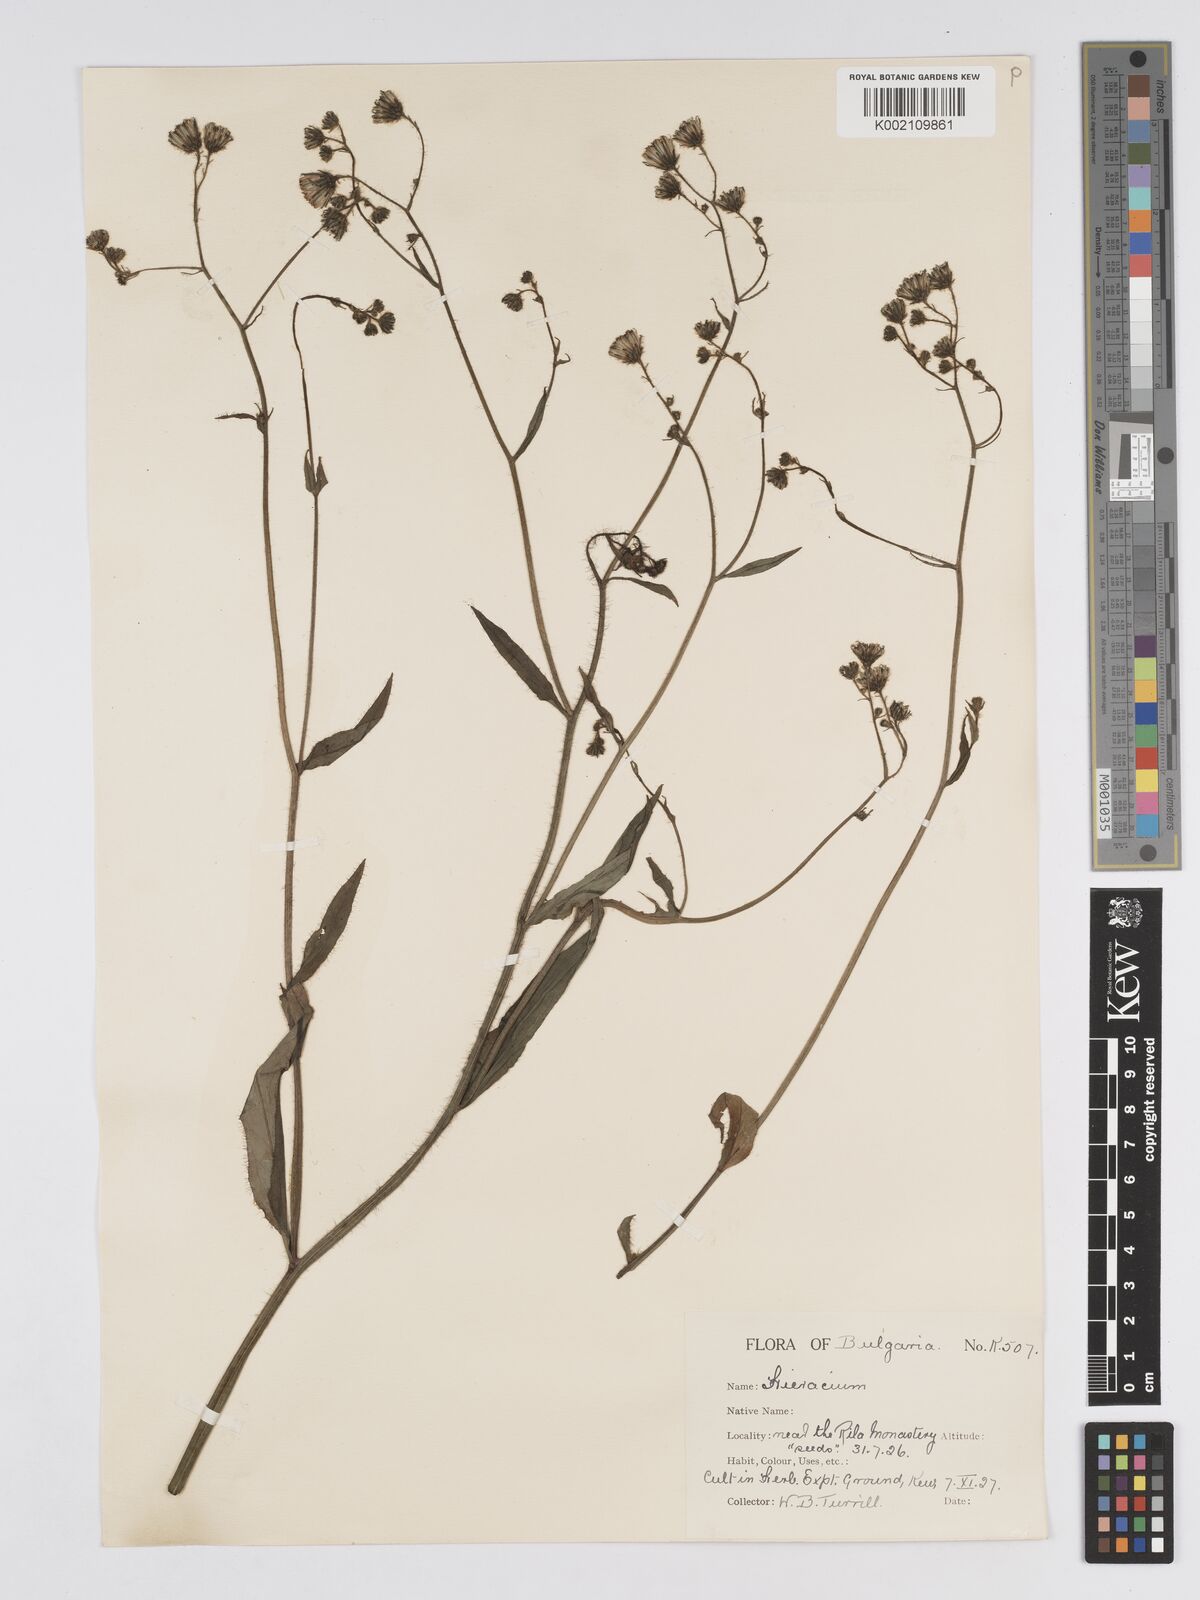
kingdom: Plantae
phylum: Tracheophyta
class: Magnoliopsida
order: Asterales
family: Asteraceae
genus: Hieracium
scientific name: Hieracium djimilense
